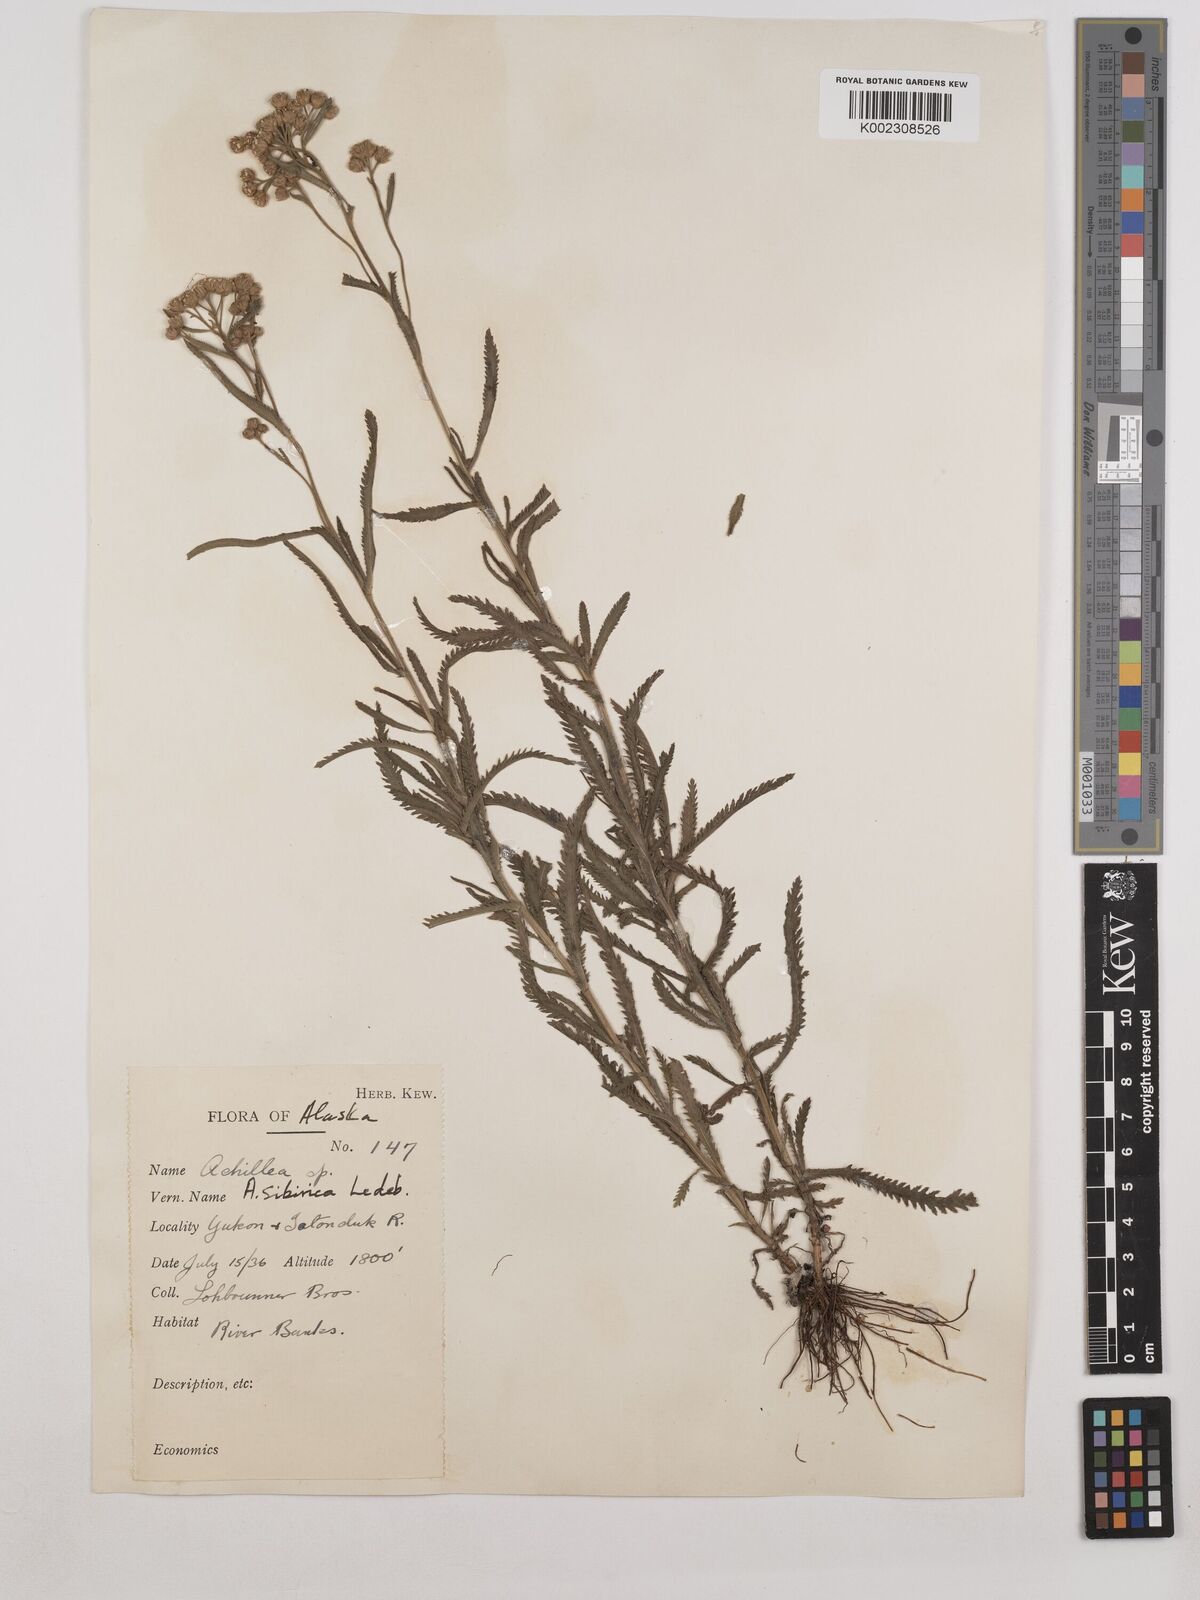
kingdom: Plantae
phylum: Tracheophyta
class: Magnoliopsida
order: Asterales
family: Asteraceae
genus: Achillea
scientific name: Achillea alpina
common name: Siberian yarrow
